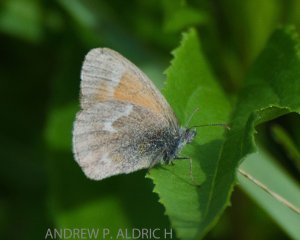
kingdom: Animalia
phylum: Arthropoda
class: Insecta
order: Lepidoptera
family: Nymphalidae
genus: Coenonympha
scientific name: Coenonympha tullia
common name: Large Heath
